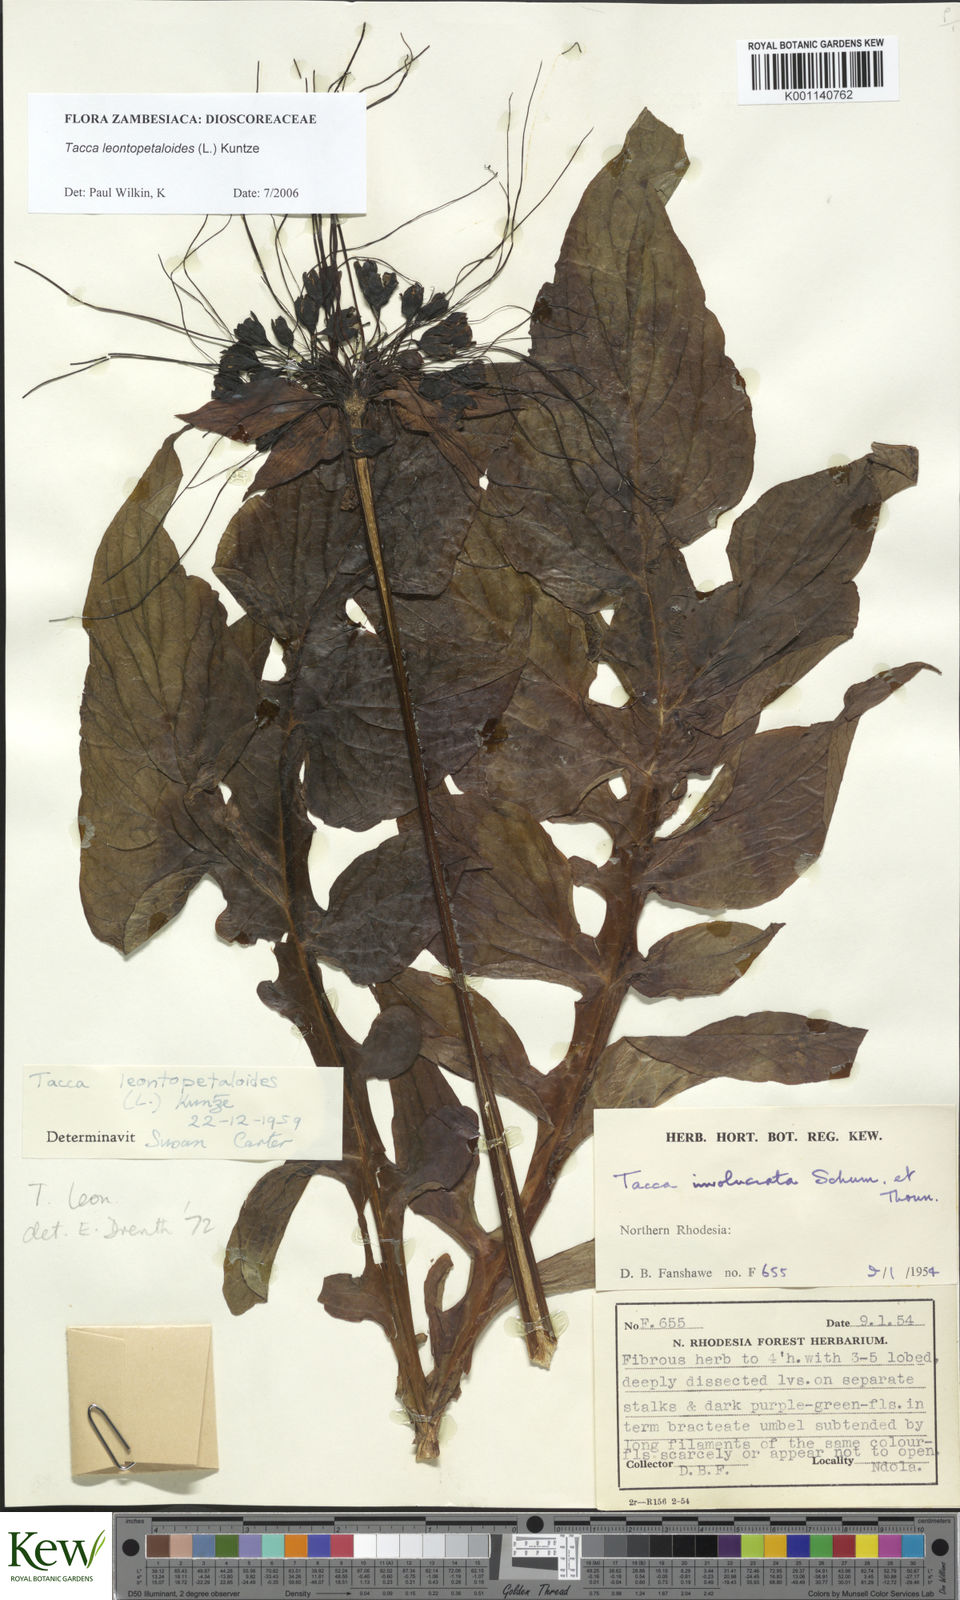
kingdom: Plantae
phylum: Tracheophyta
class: Liliopsida
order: Dioscoreales
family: Dioscoreaceae
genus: Tacca
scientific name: Tacca leontopetaloides
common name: Arrowroot
